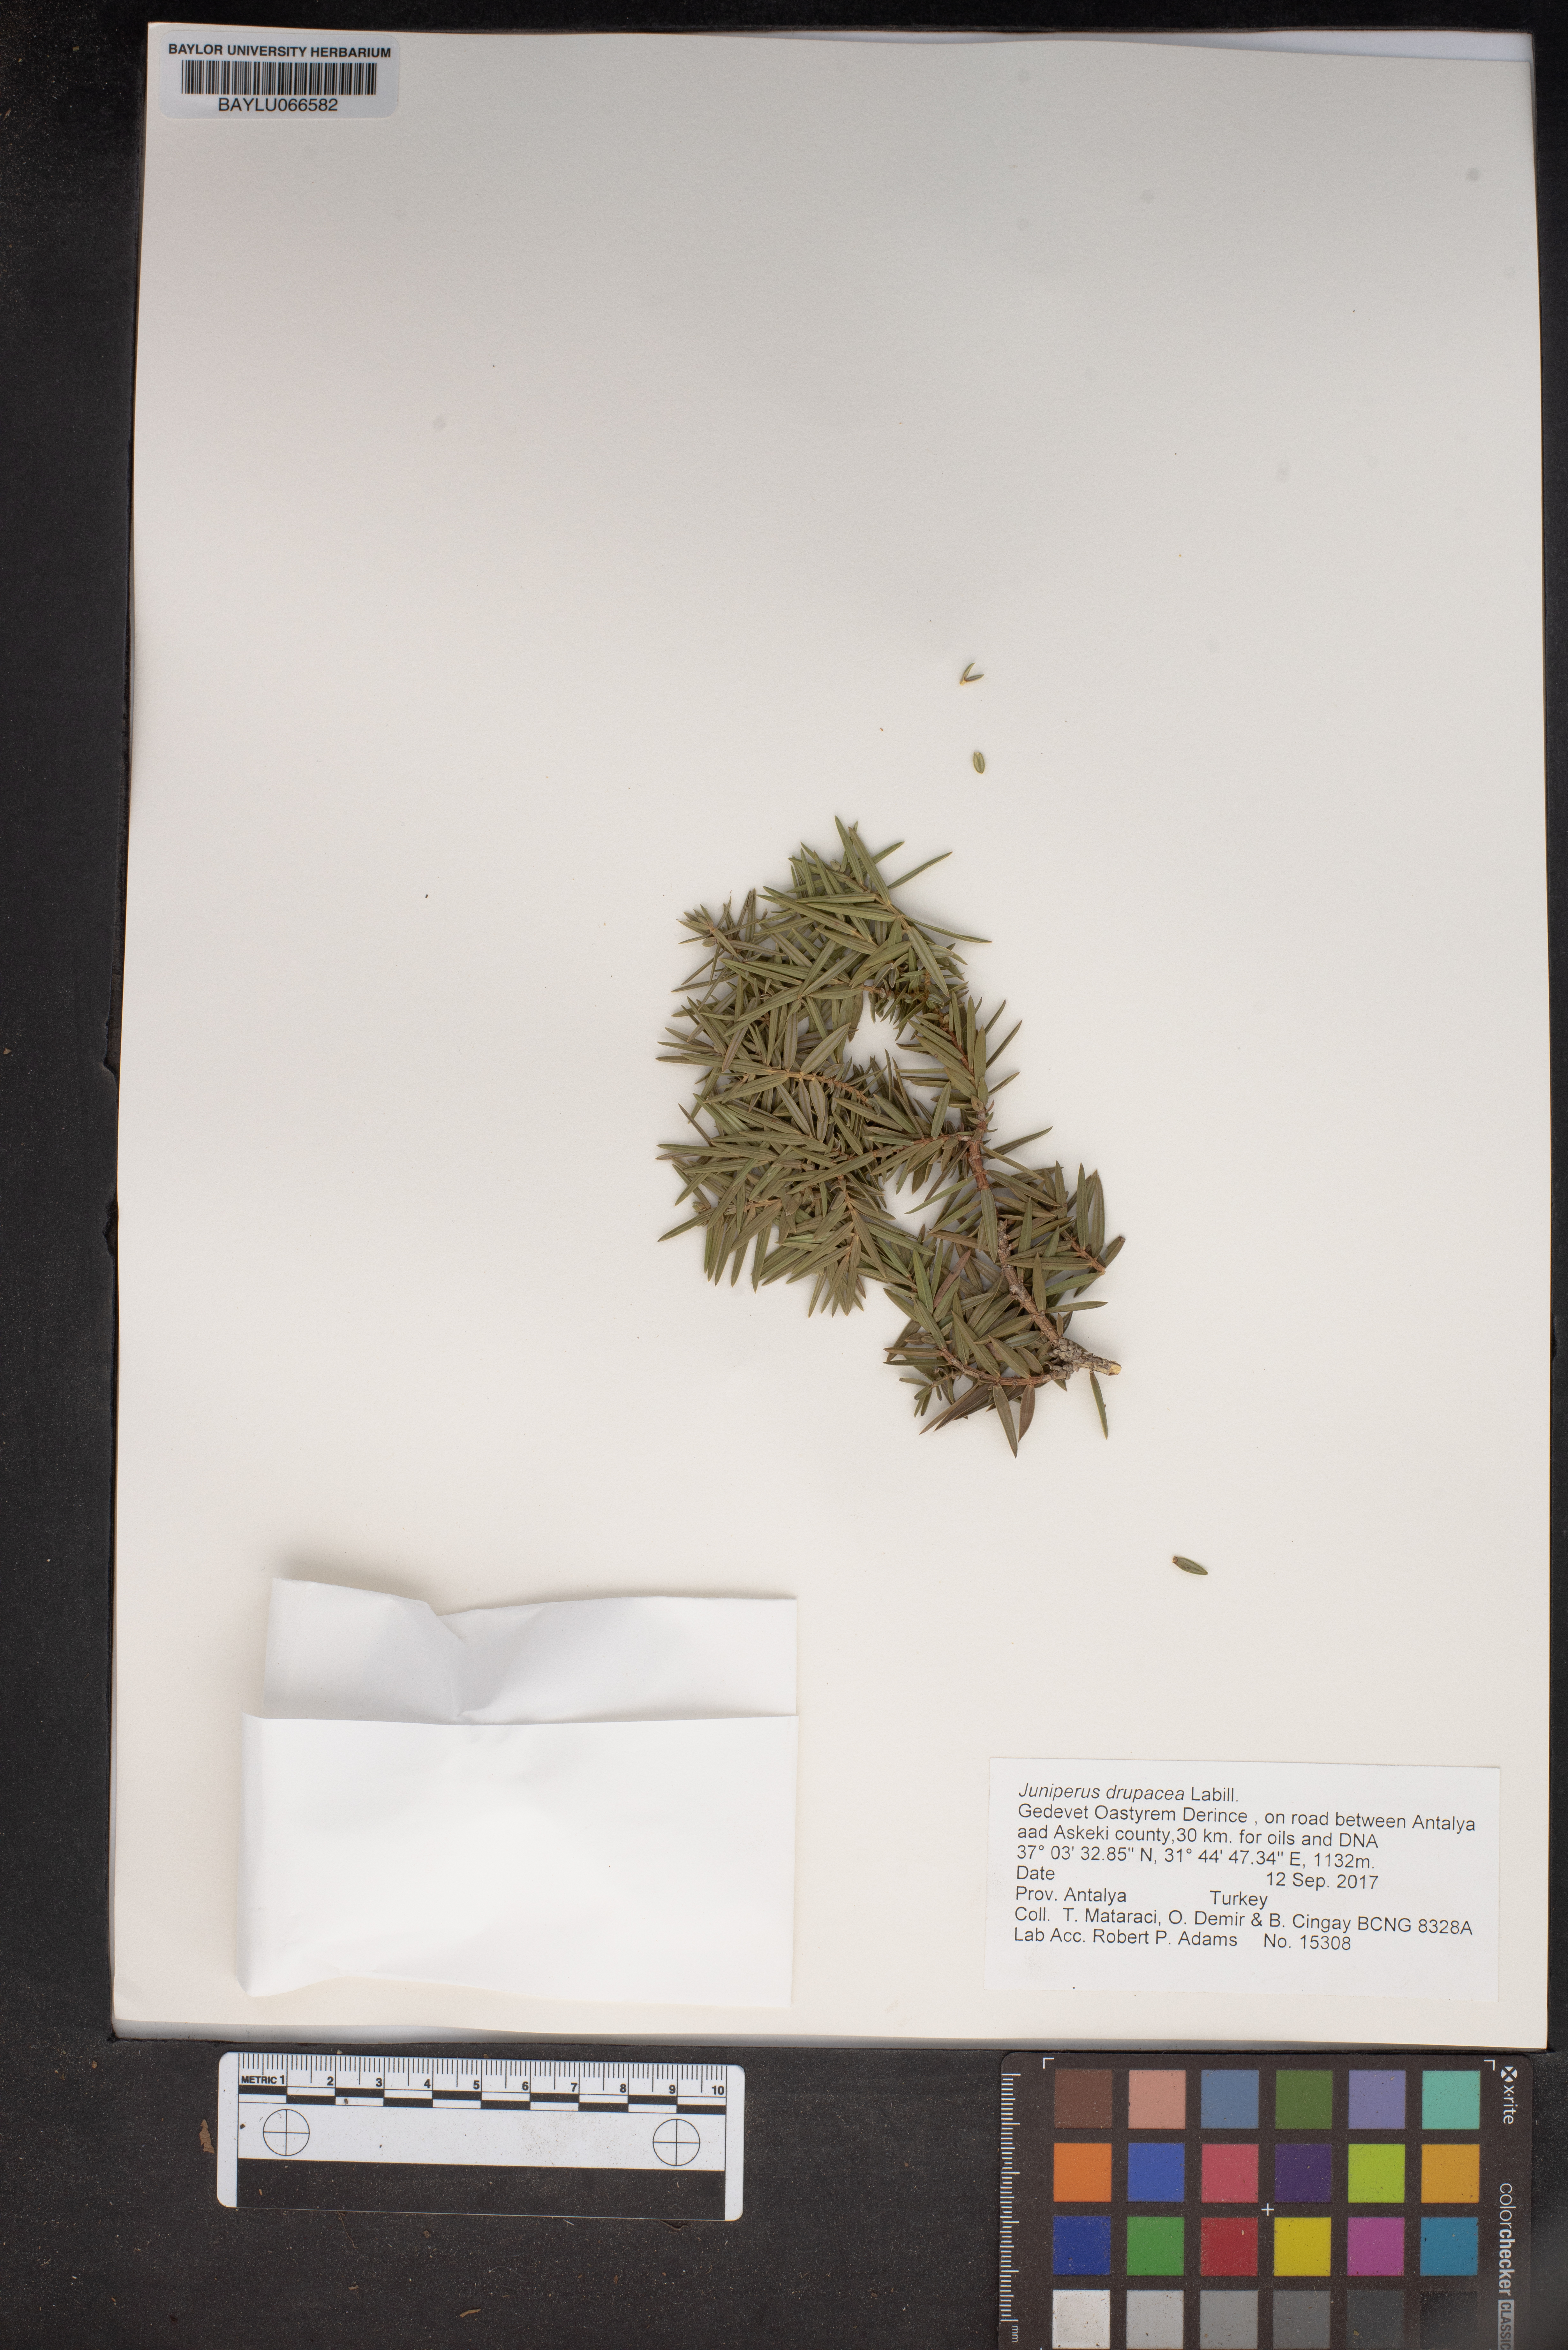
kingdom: Plantae
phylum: Tracheophyta
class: Pinopsida
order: Pinales
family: Cupressaceae
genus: Juniperus
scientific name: Juniperus drupacea
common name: Syrian juniper
